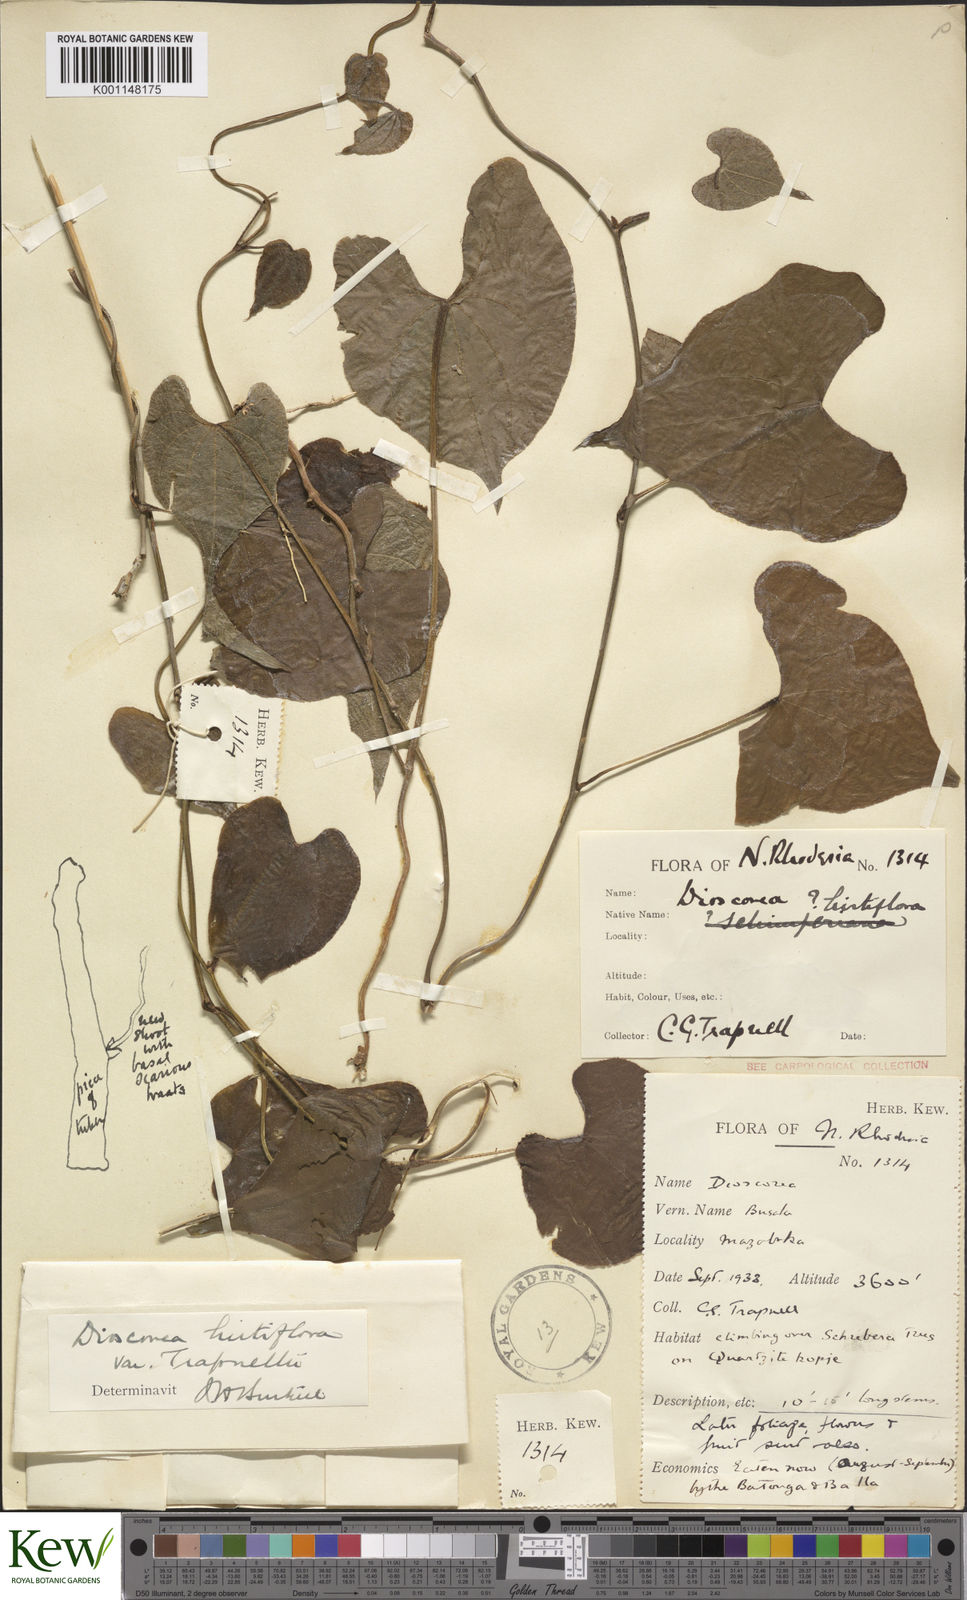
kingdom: Plantae
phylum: Tracheophyta
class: Liliopsida
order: Dioscoreales
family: Dioscoreaceae
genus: Dioscorea
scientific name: Dioscorea hirtiflora
